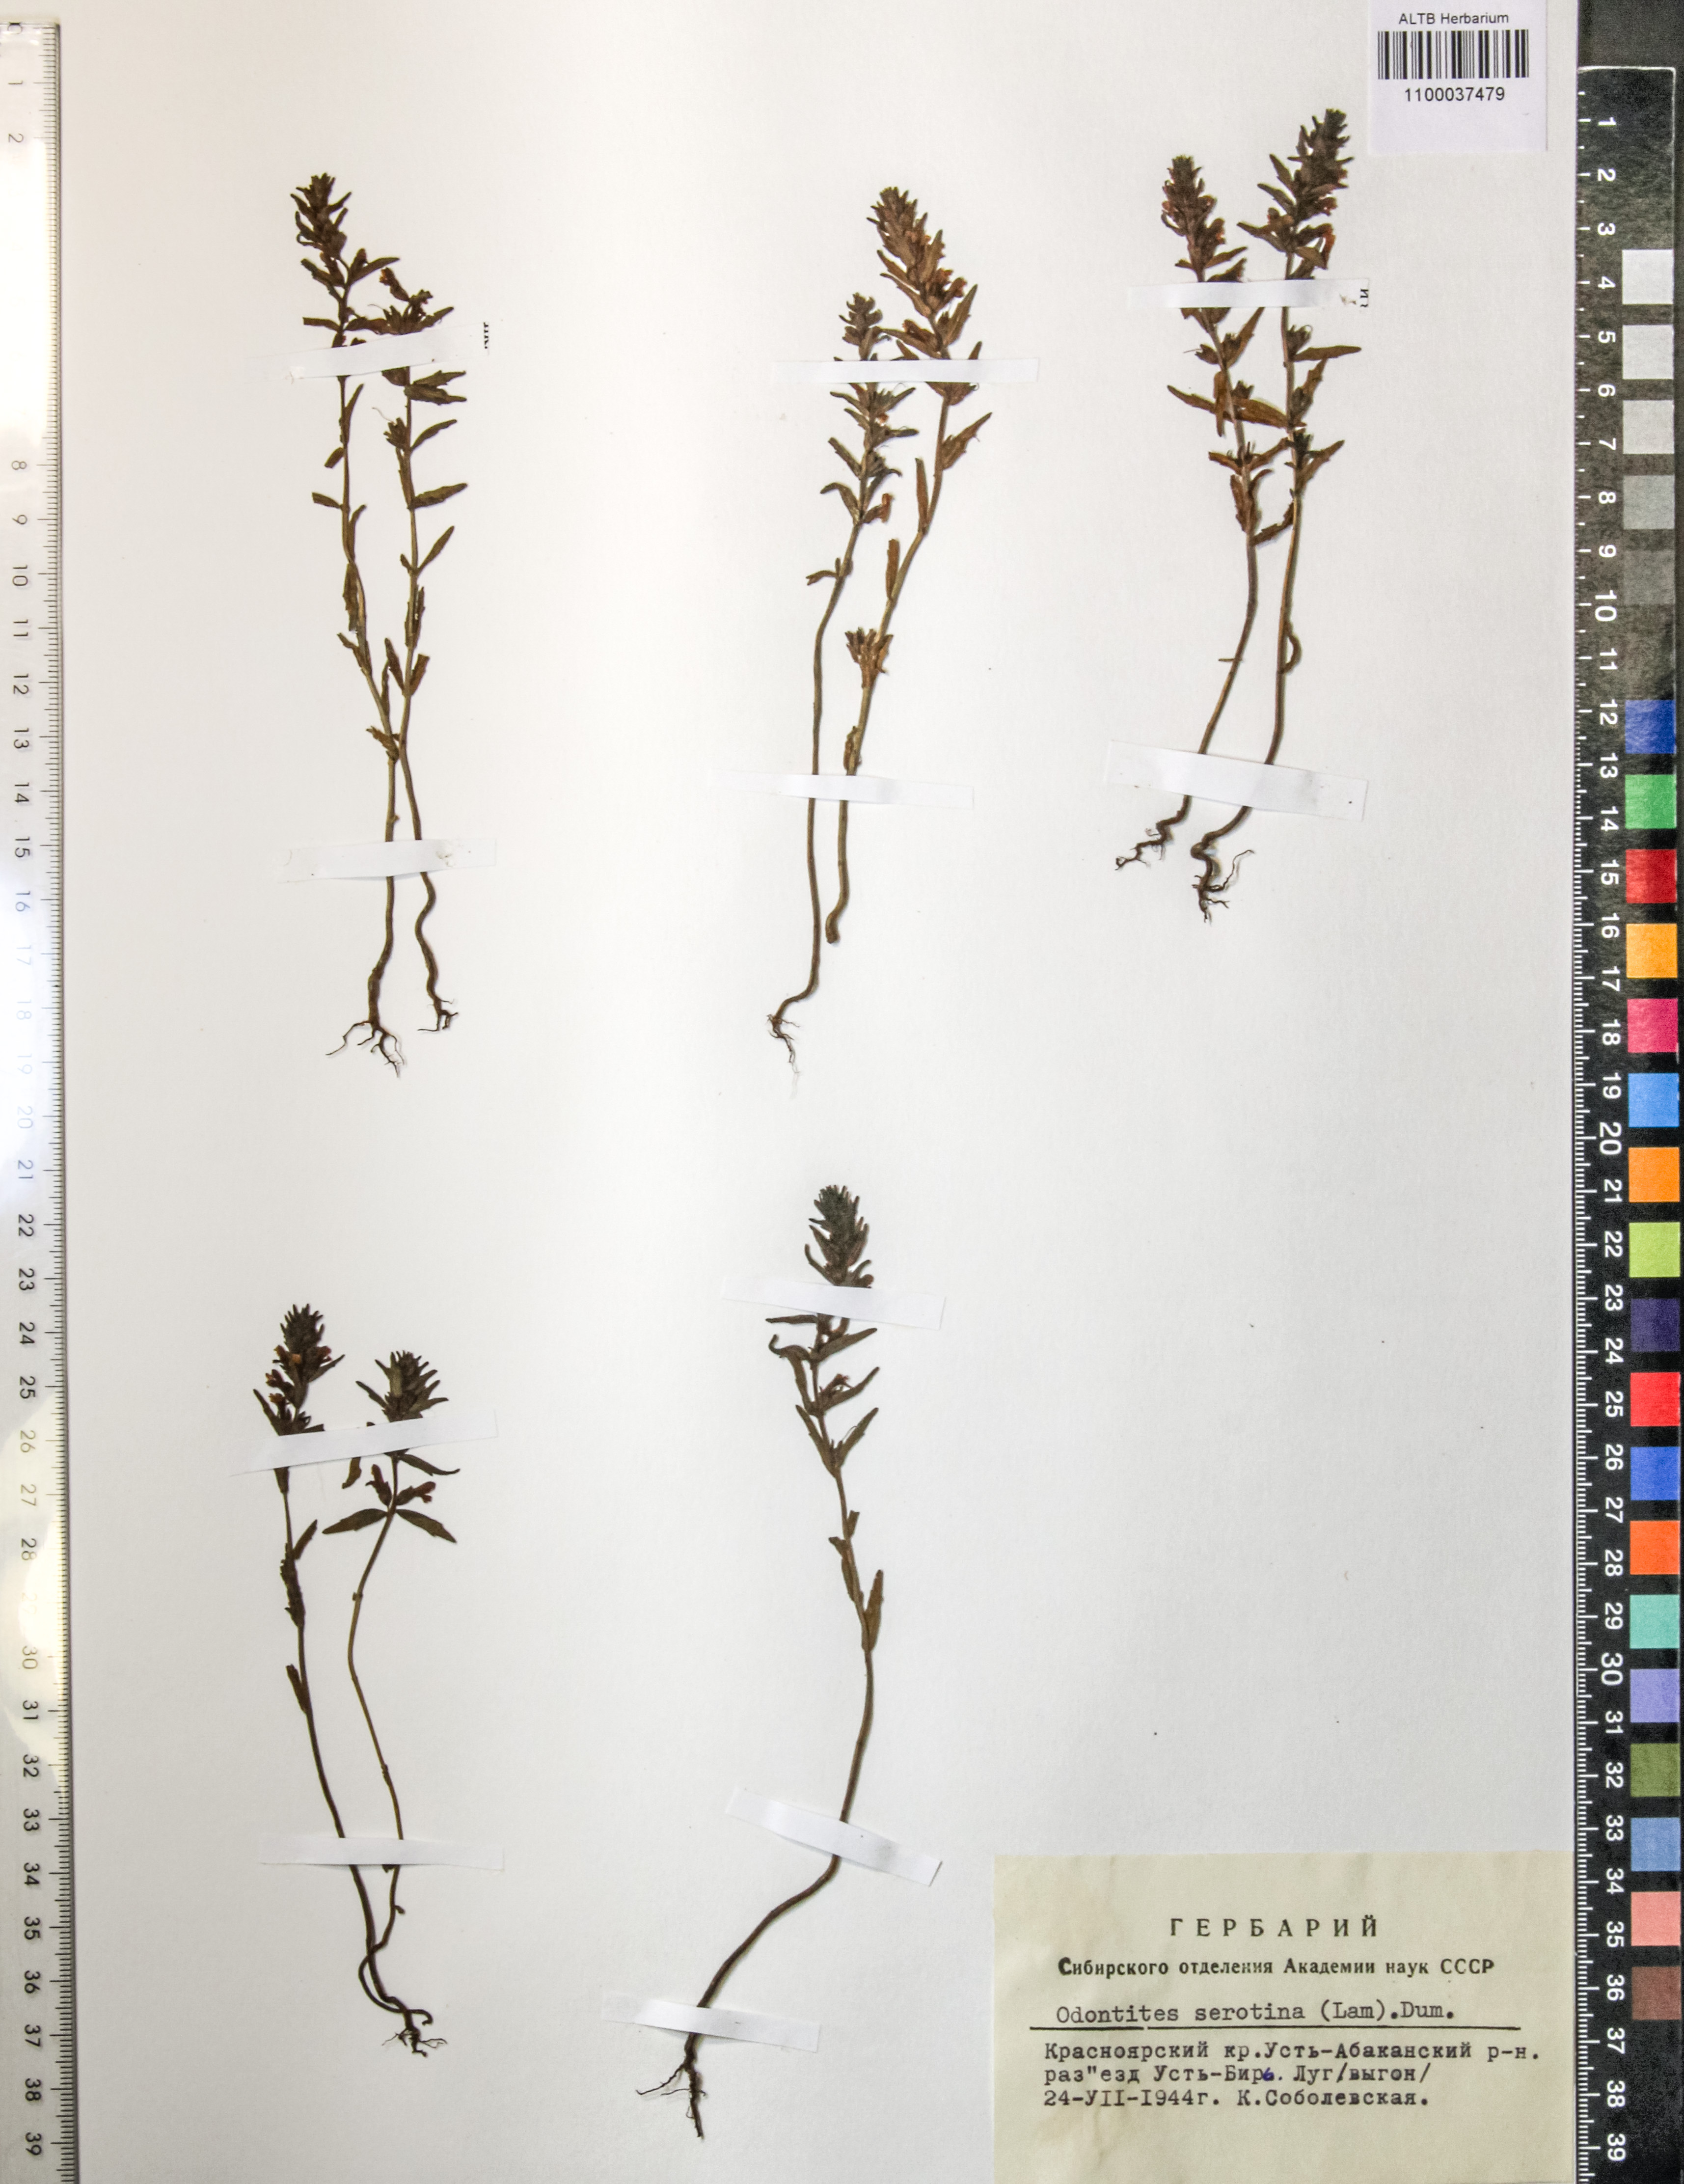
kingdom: Plantae
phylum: Tracheophyta
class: Magnoliopsida
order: Lamiales
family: Orobanchaceae
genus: Odontites
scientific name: Odontites vulgaris
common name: Broomrape
